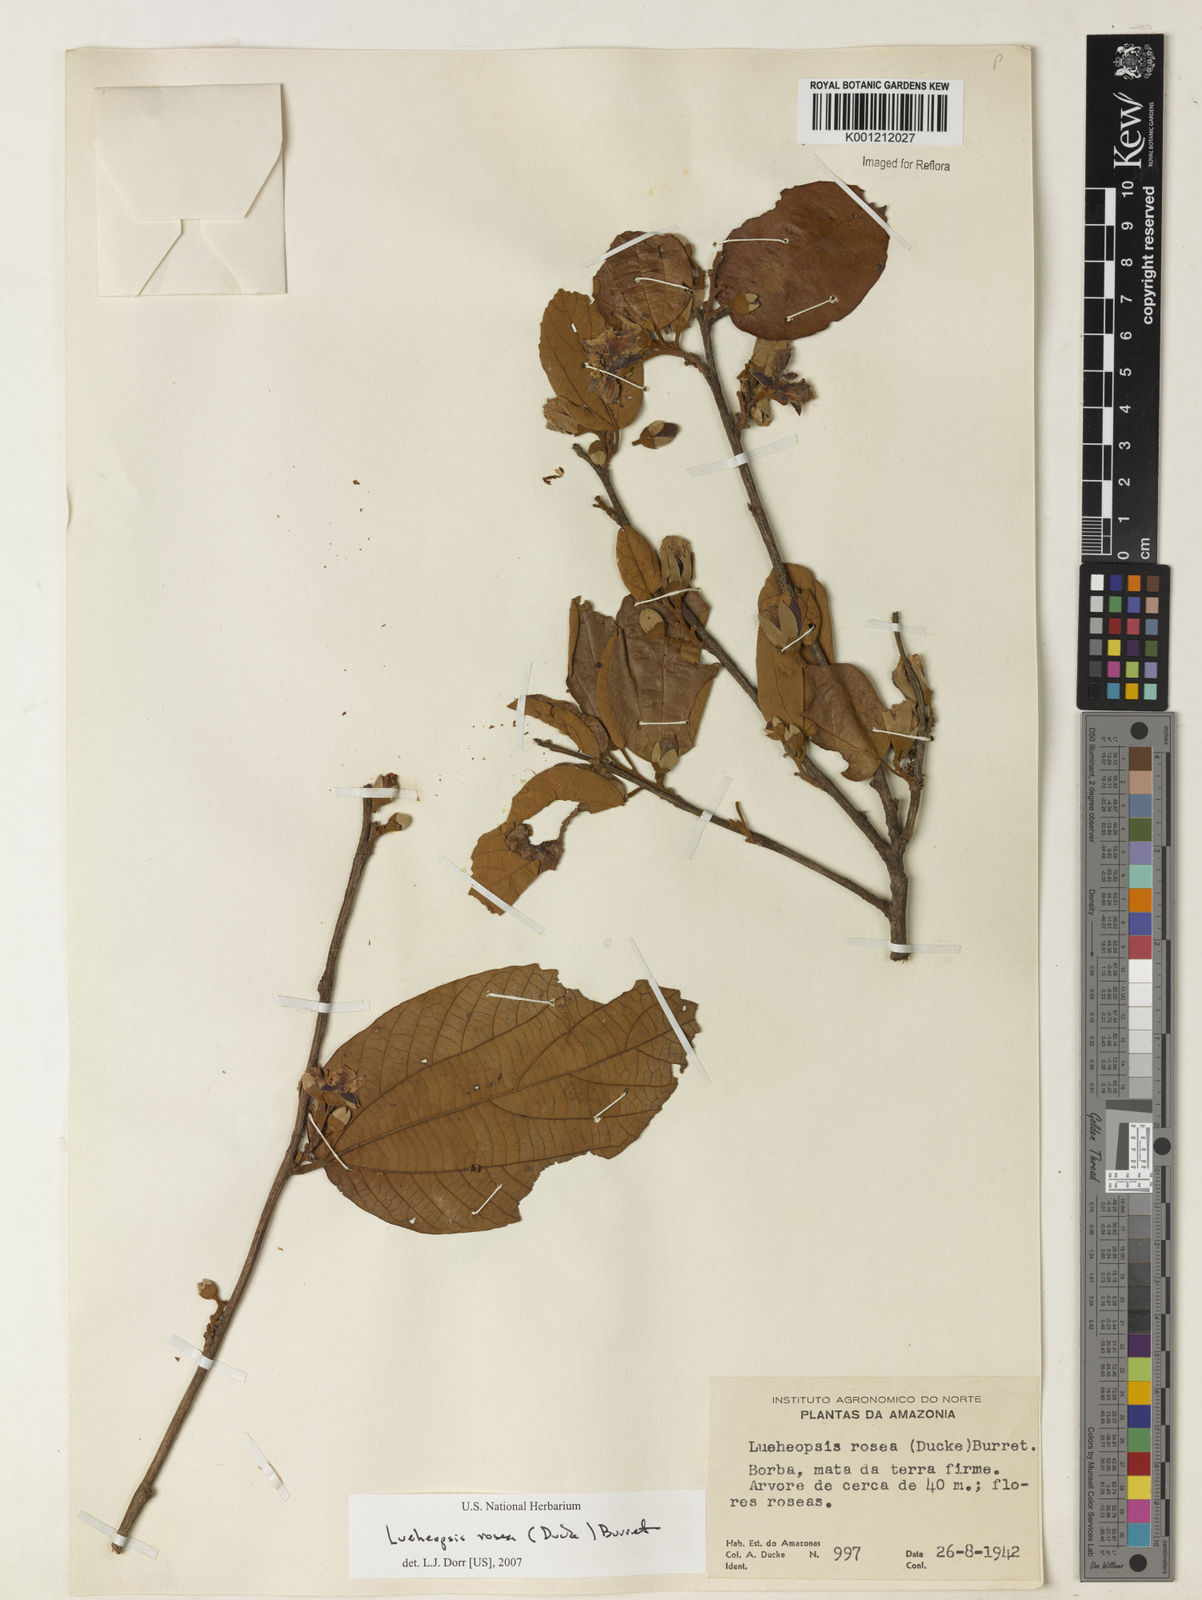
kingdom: Plantae
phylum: Tracheophyta
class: Magnoliopsida
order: Malvales
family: Malvaceae
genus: Lueheopsis
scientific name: Lueheopsis rosea
